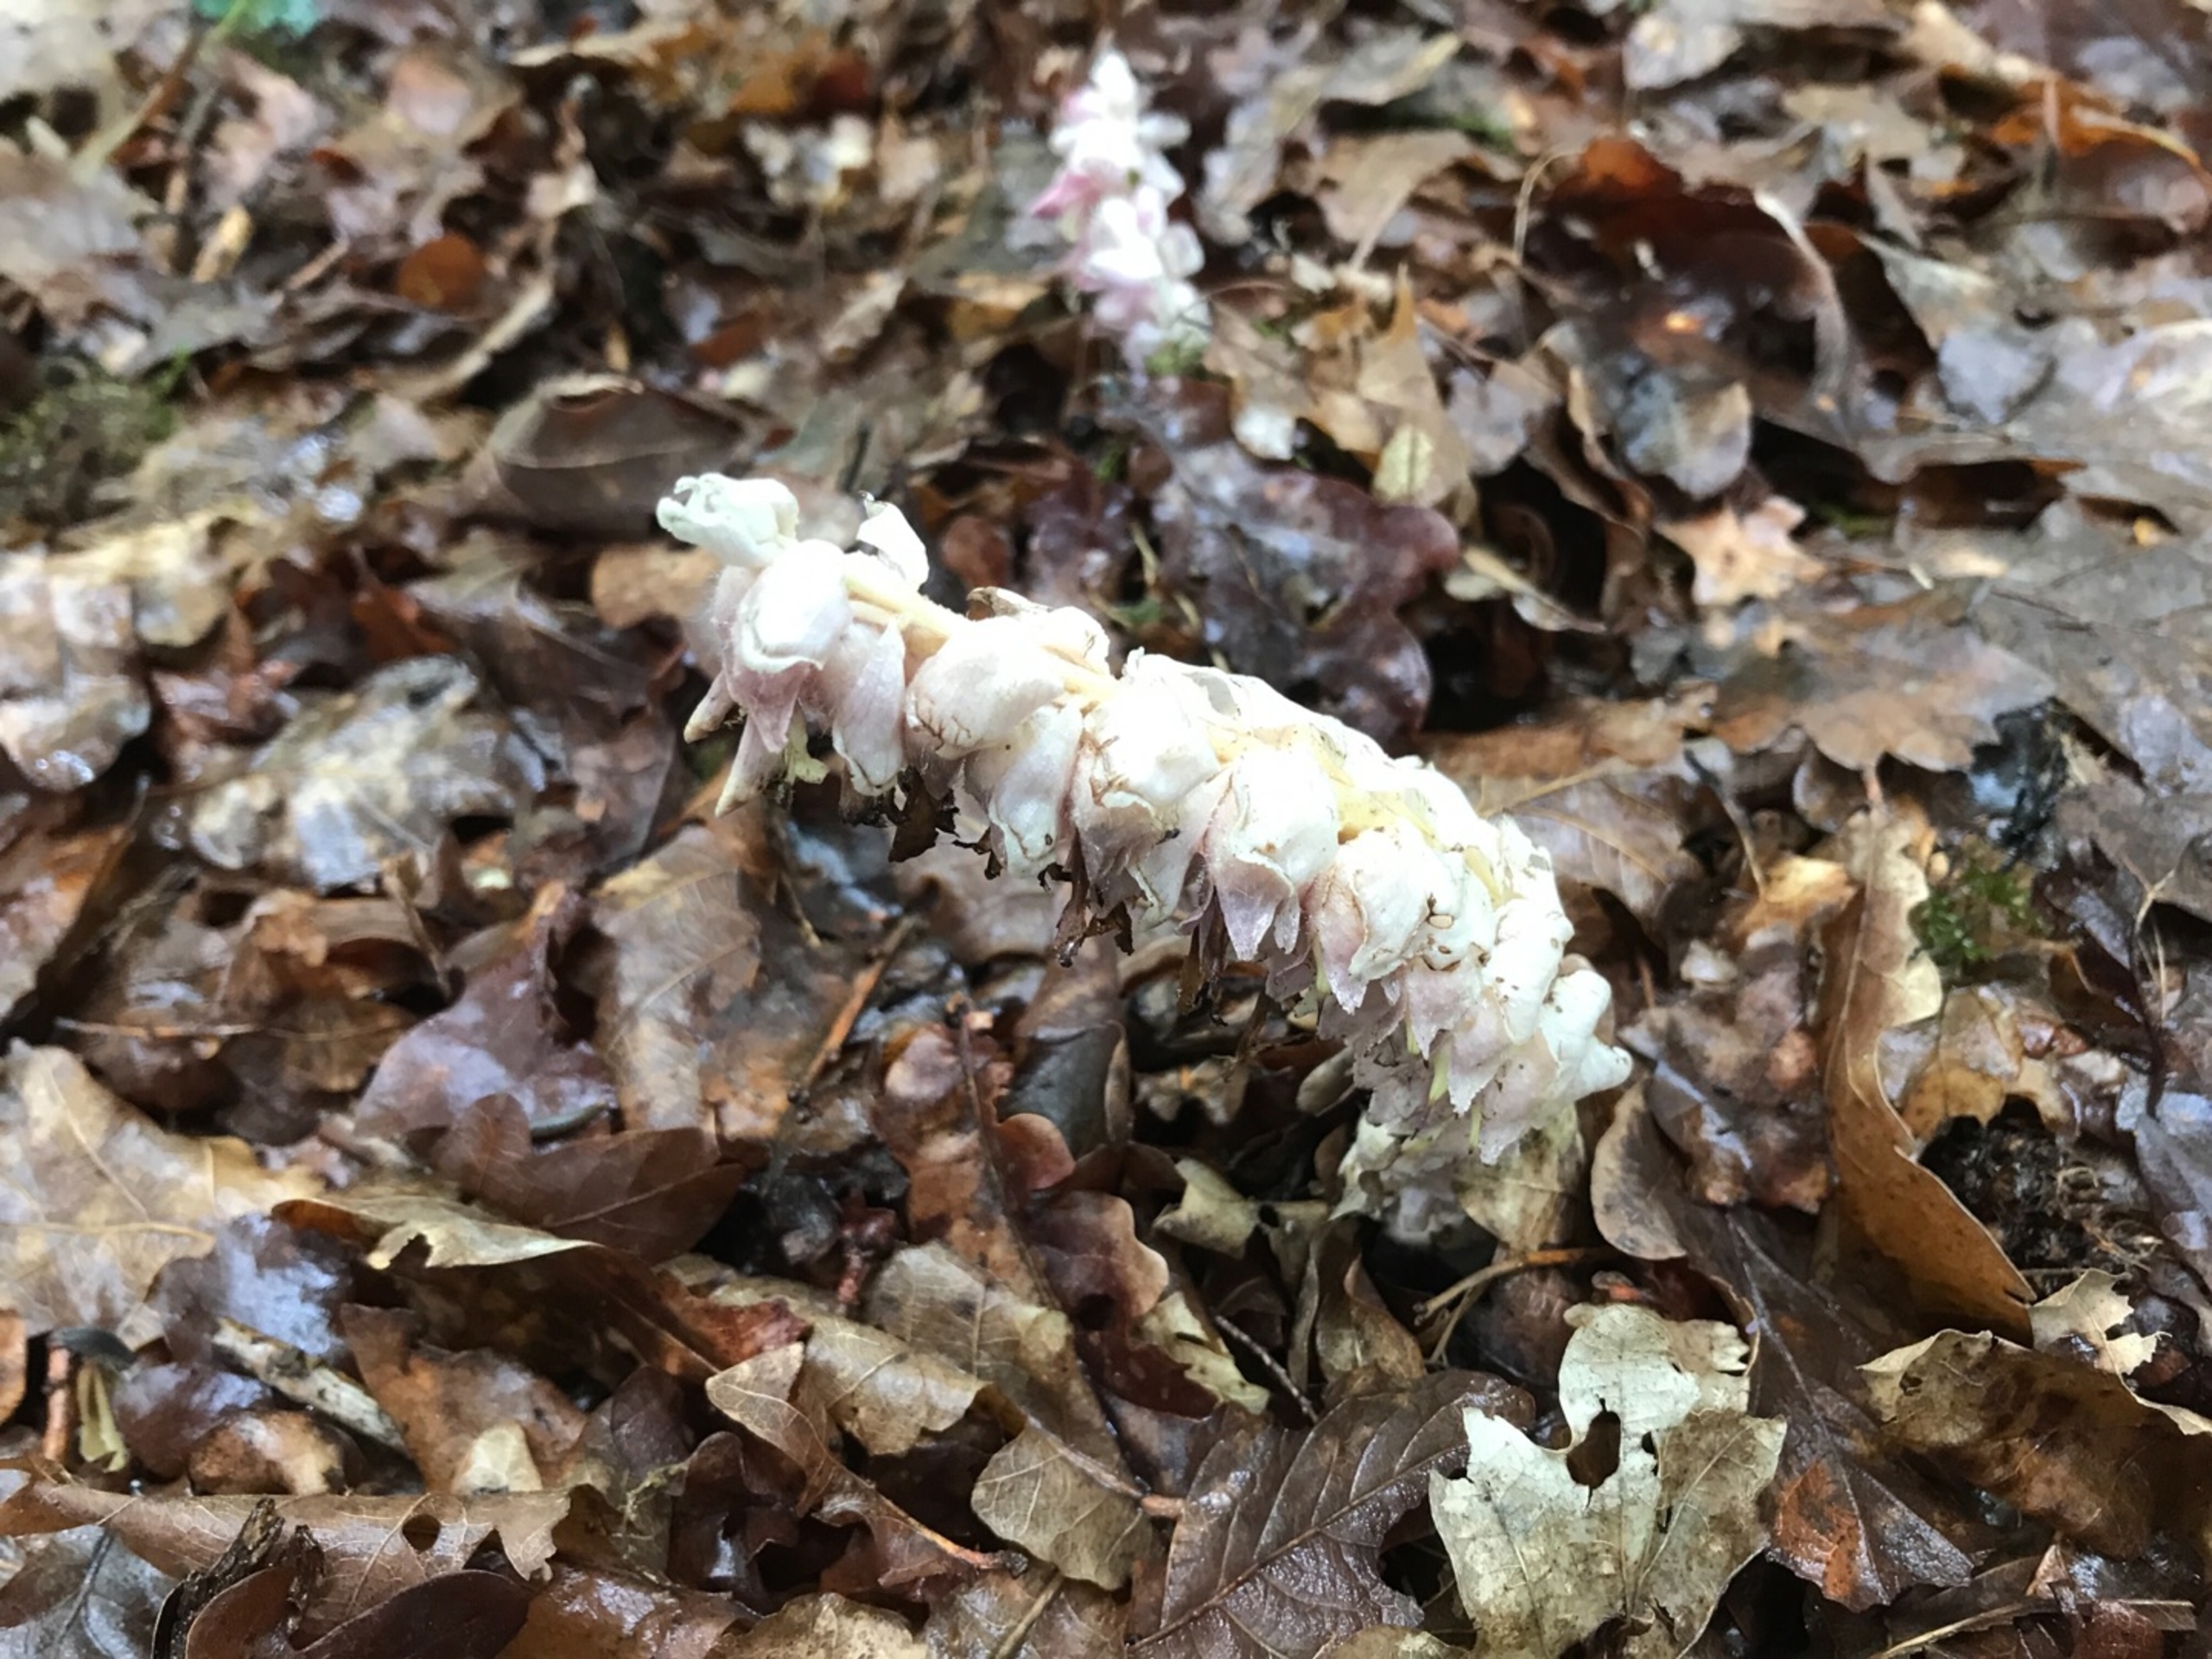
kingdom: Plantae
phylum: Tracheophyta
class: Magnoliopsida
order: Lamiales
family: Orobanchaceae
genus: Lathraea
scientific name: Lathraea squamaria
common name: Skælrod
